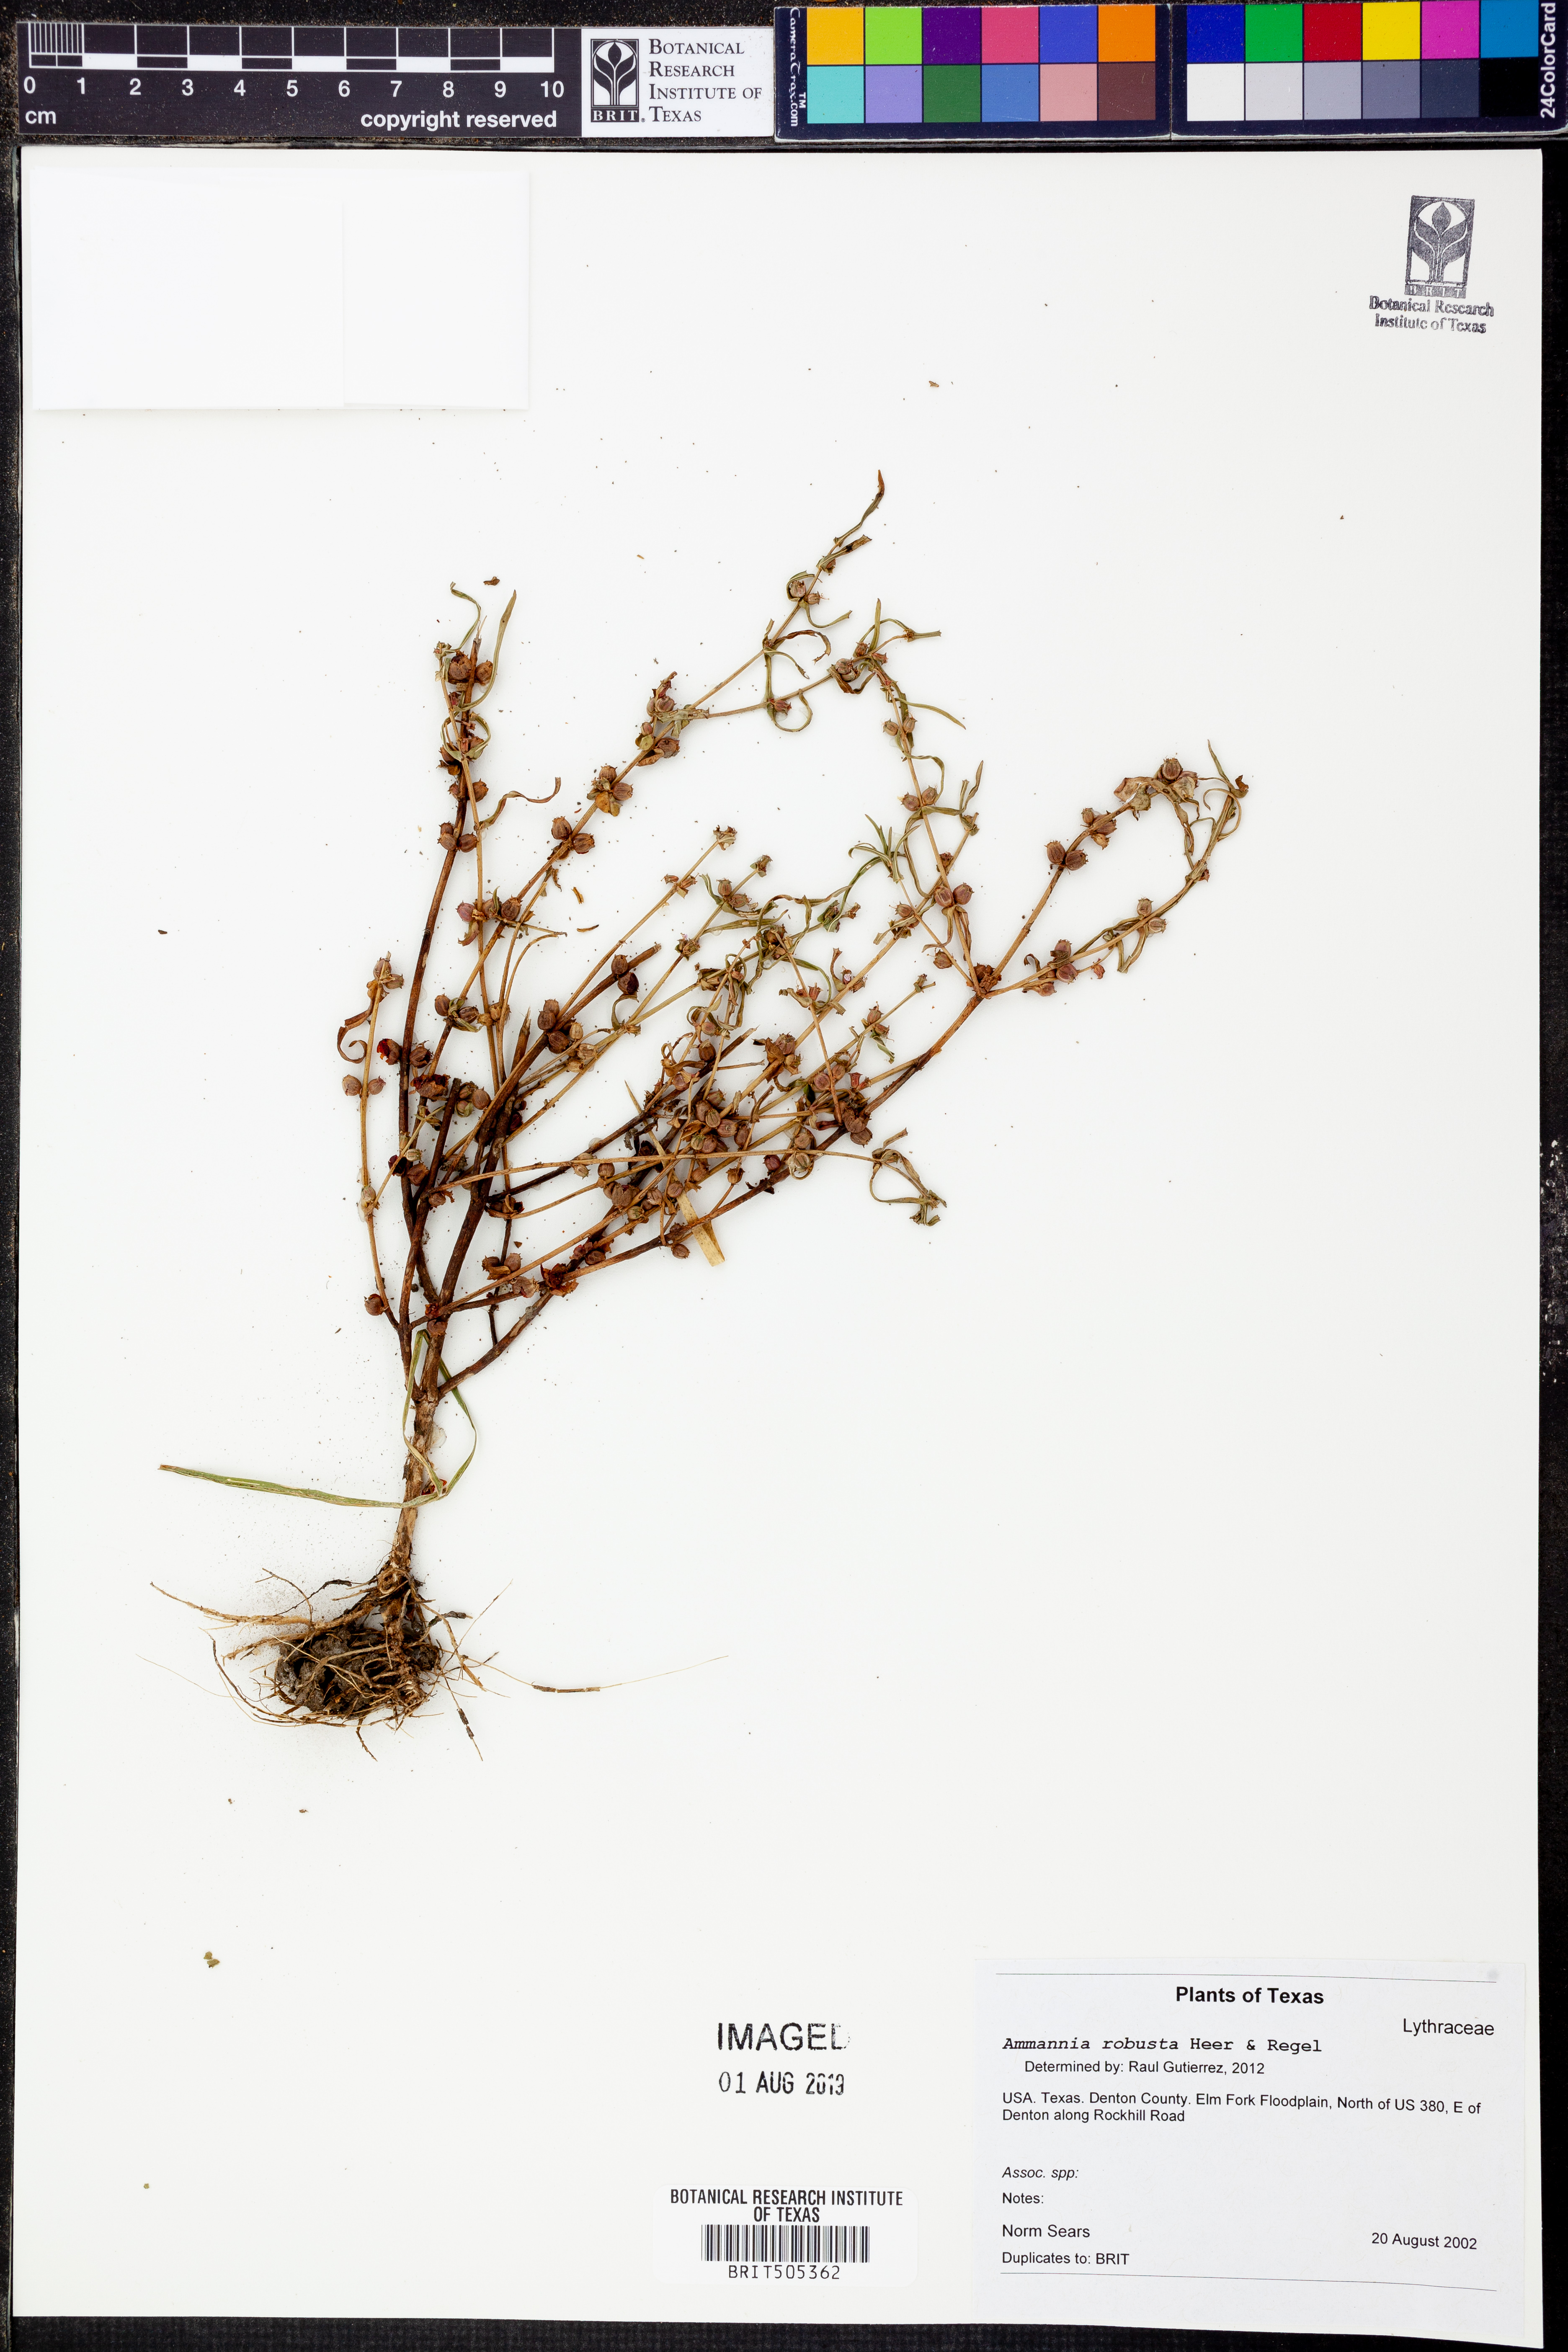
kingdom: Plantae
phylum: Tracheophyta
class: Magnoliopsida
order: Myrtales
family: Lythraceae
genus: Ammannia
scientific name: Ammannia robusta
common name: Grand ammannia
